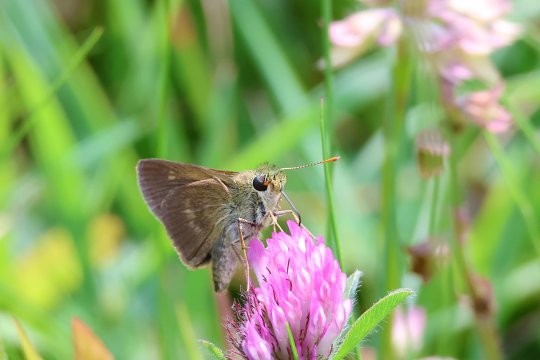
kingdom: Animalia
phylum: Arthropoda
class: Insecta
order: Lepidoptera
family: Hesperiidae
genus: Polites
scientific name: Polites egeremet
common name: Northern Broken-Dash
